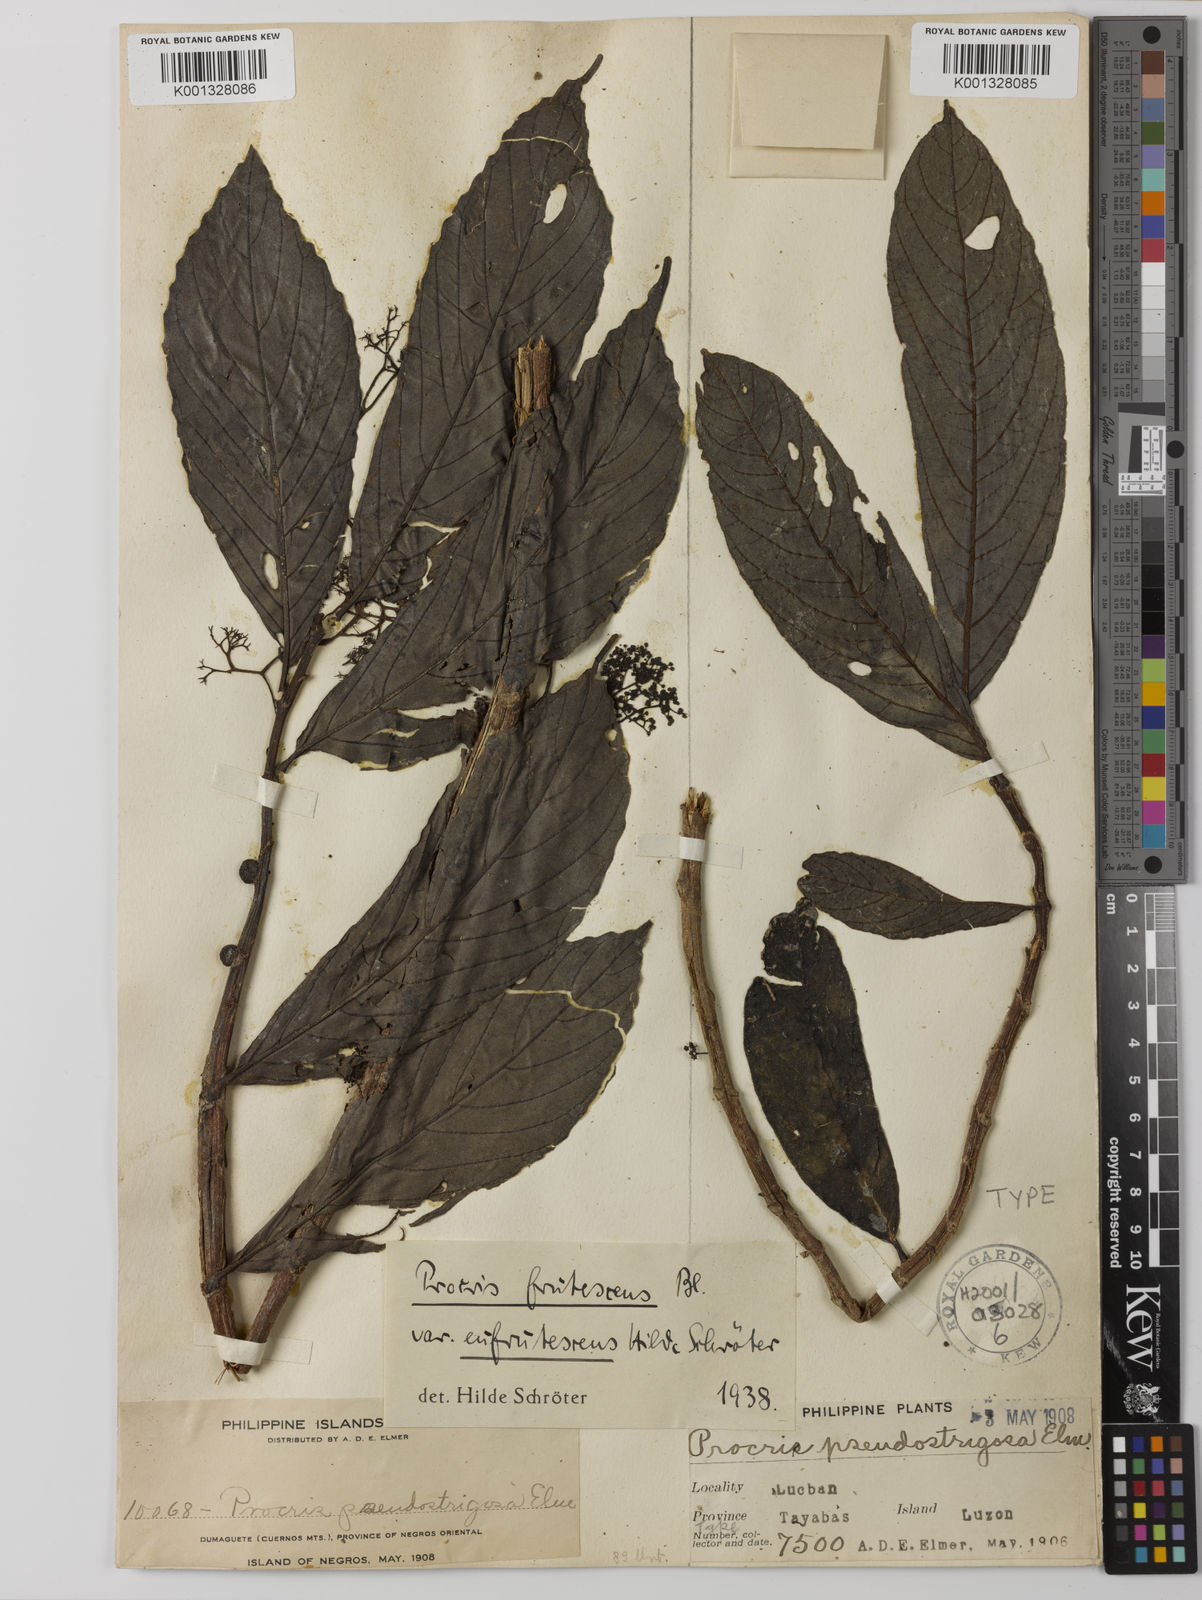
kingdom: Plantae
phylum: Tracheophyta
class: Magnoliopsida
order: Rosales
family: Urticaceae
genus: Procris
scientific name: Procris frutescens
